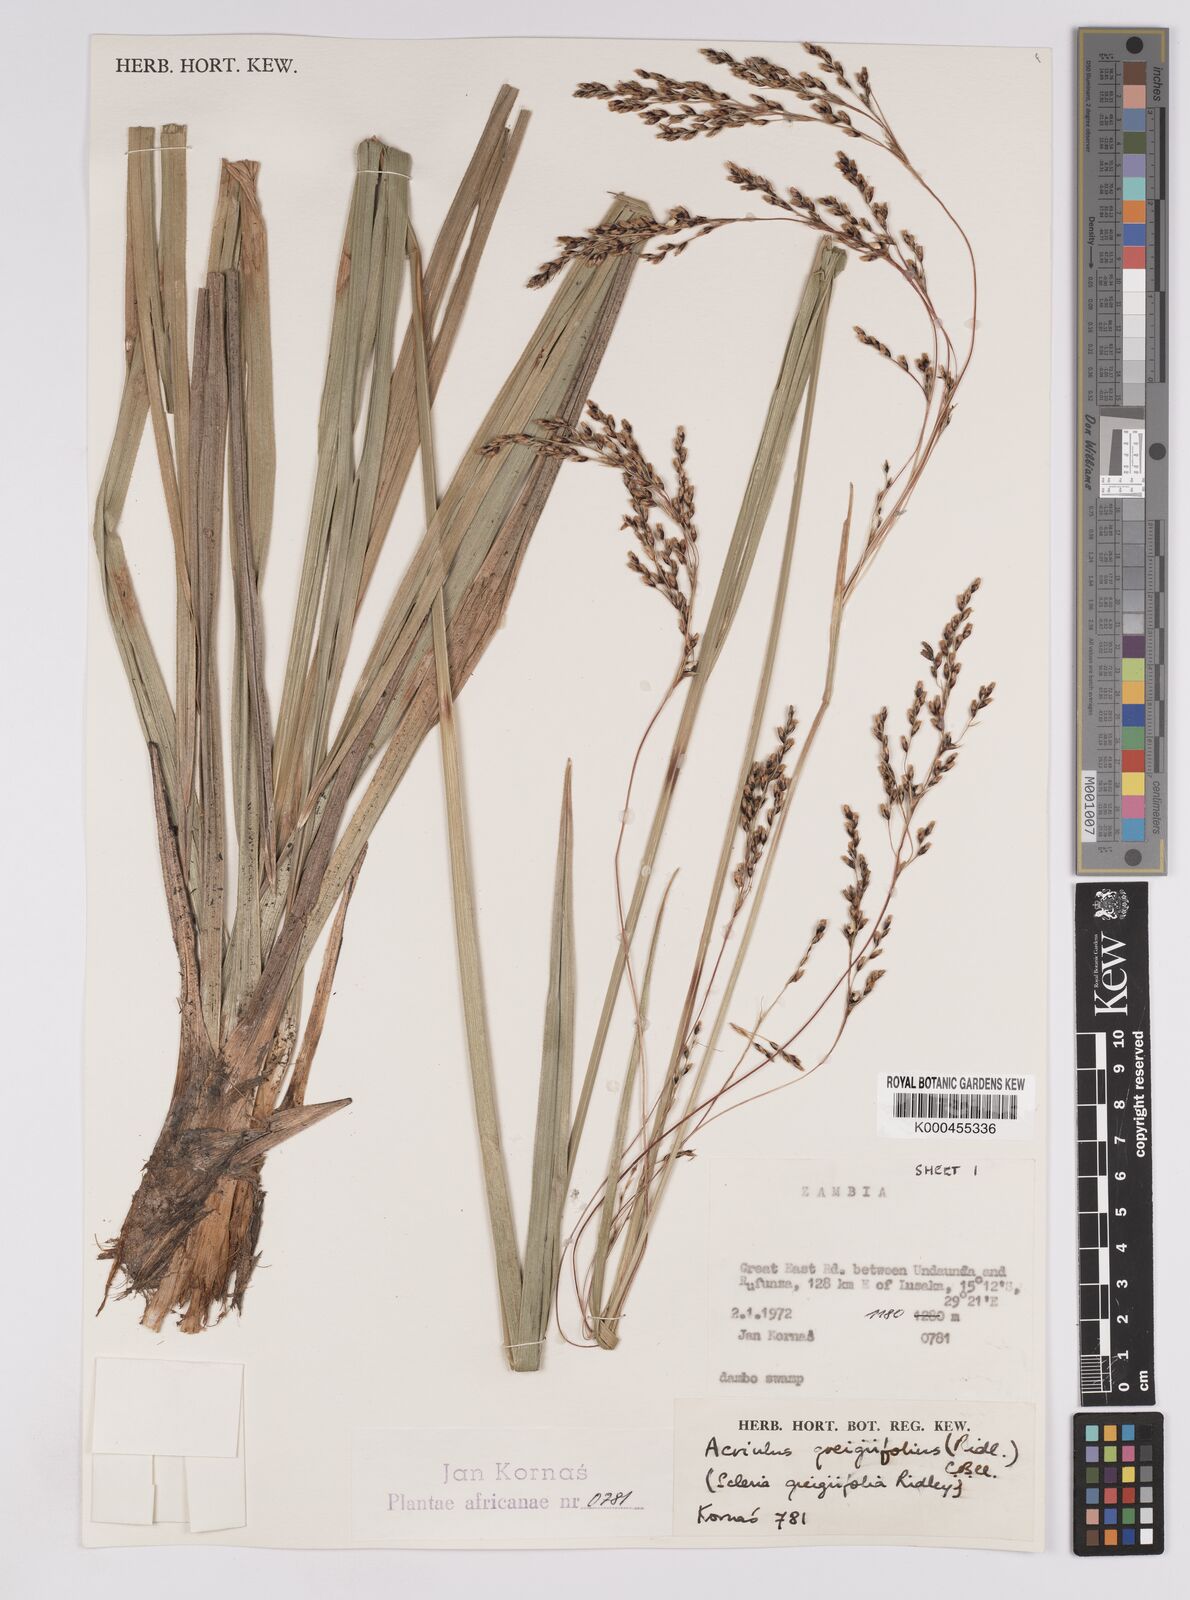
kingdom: Plantae
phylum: Tracheophyta
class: Liliopsida
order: Poales
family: Cyperaceae
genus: Scleria
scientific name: Scleria greigiifolia
